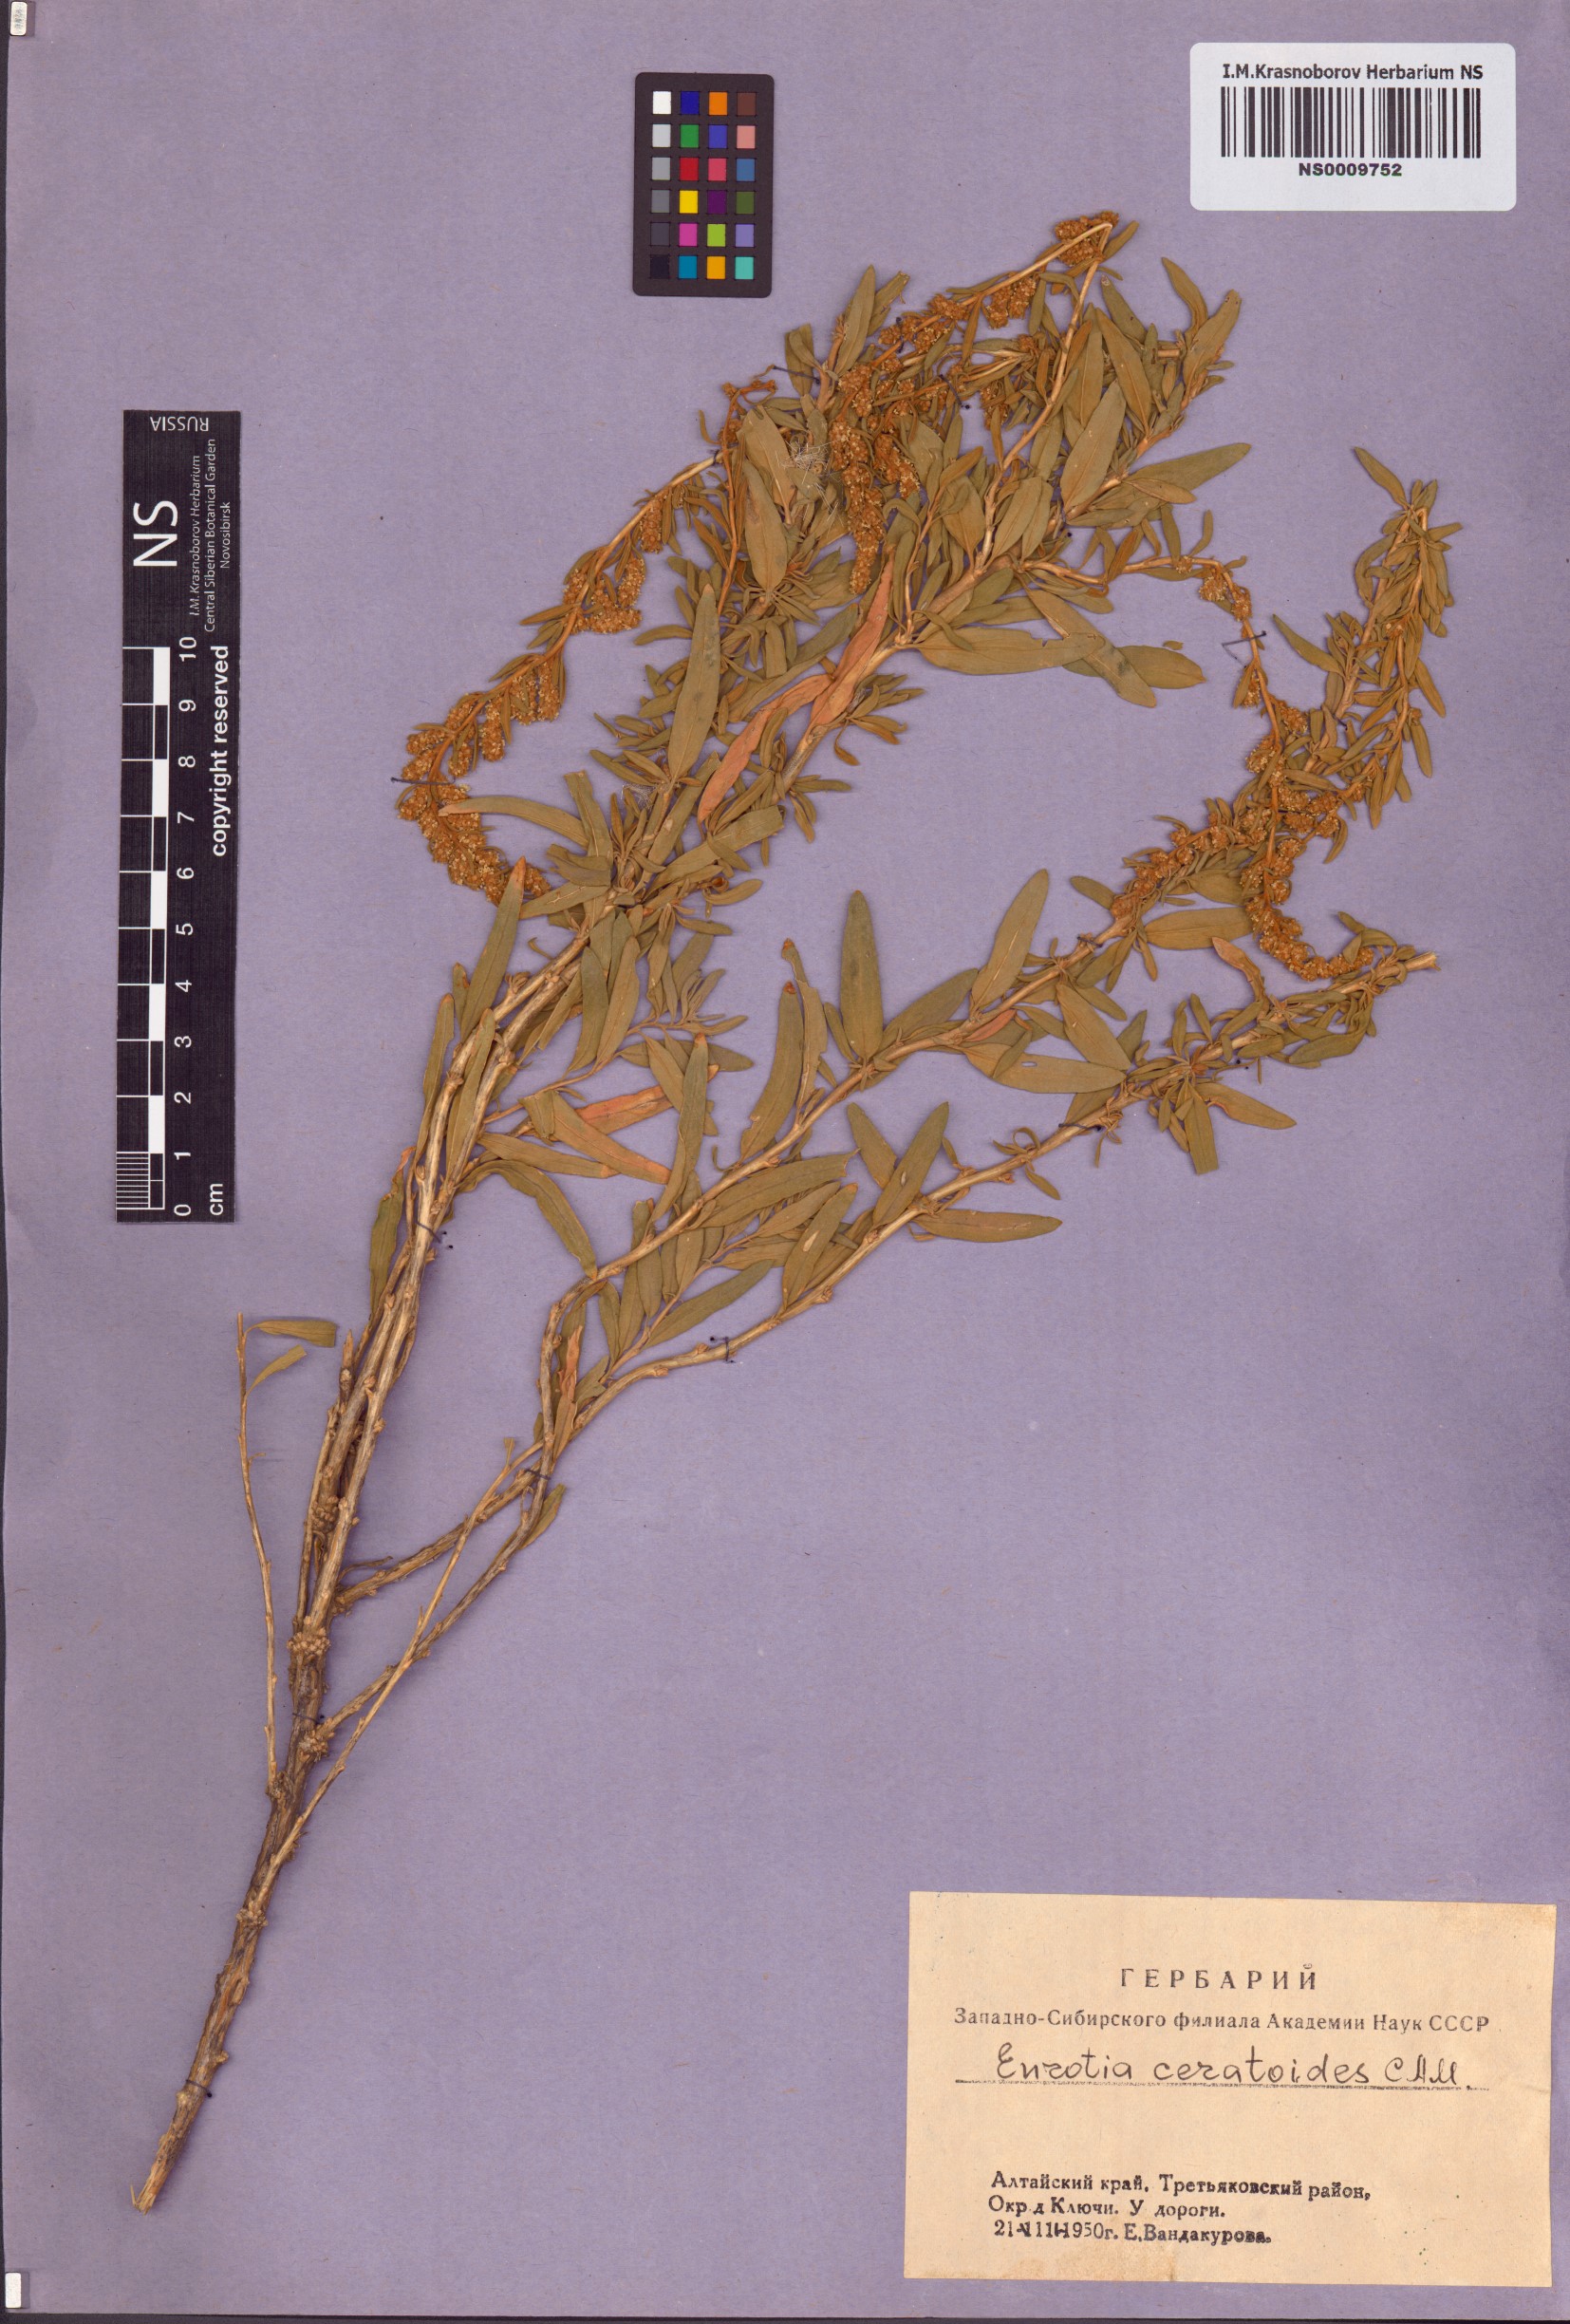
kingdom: Plantae
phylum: Tracheophyta
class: Magnoliopsida
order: Caryophyllales
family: Amaranthaceae
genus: Krascheninnikovia
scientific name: Krascheninnikovia ceratoides
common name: Pamirian winterfat
